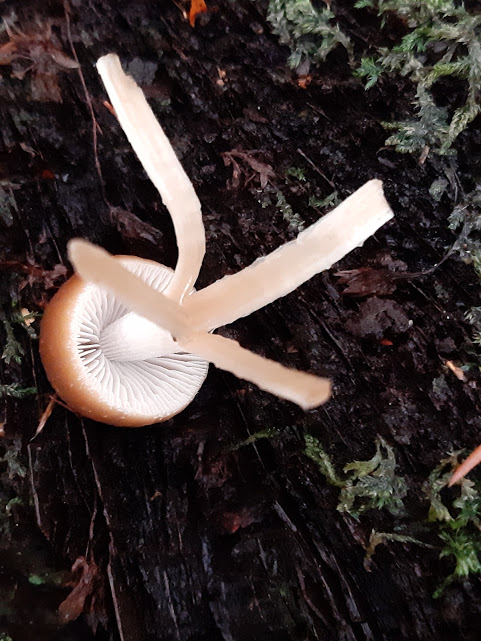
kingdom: Fungi
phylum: Basidiomycota
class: Agaricomycetes
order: Agaricales
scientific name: Agaricales
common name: champignonordenen
